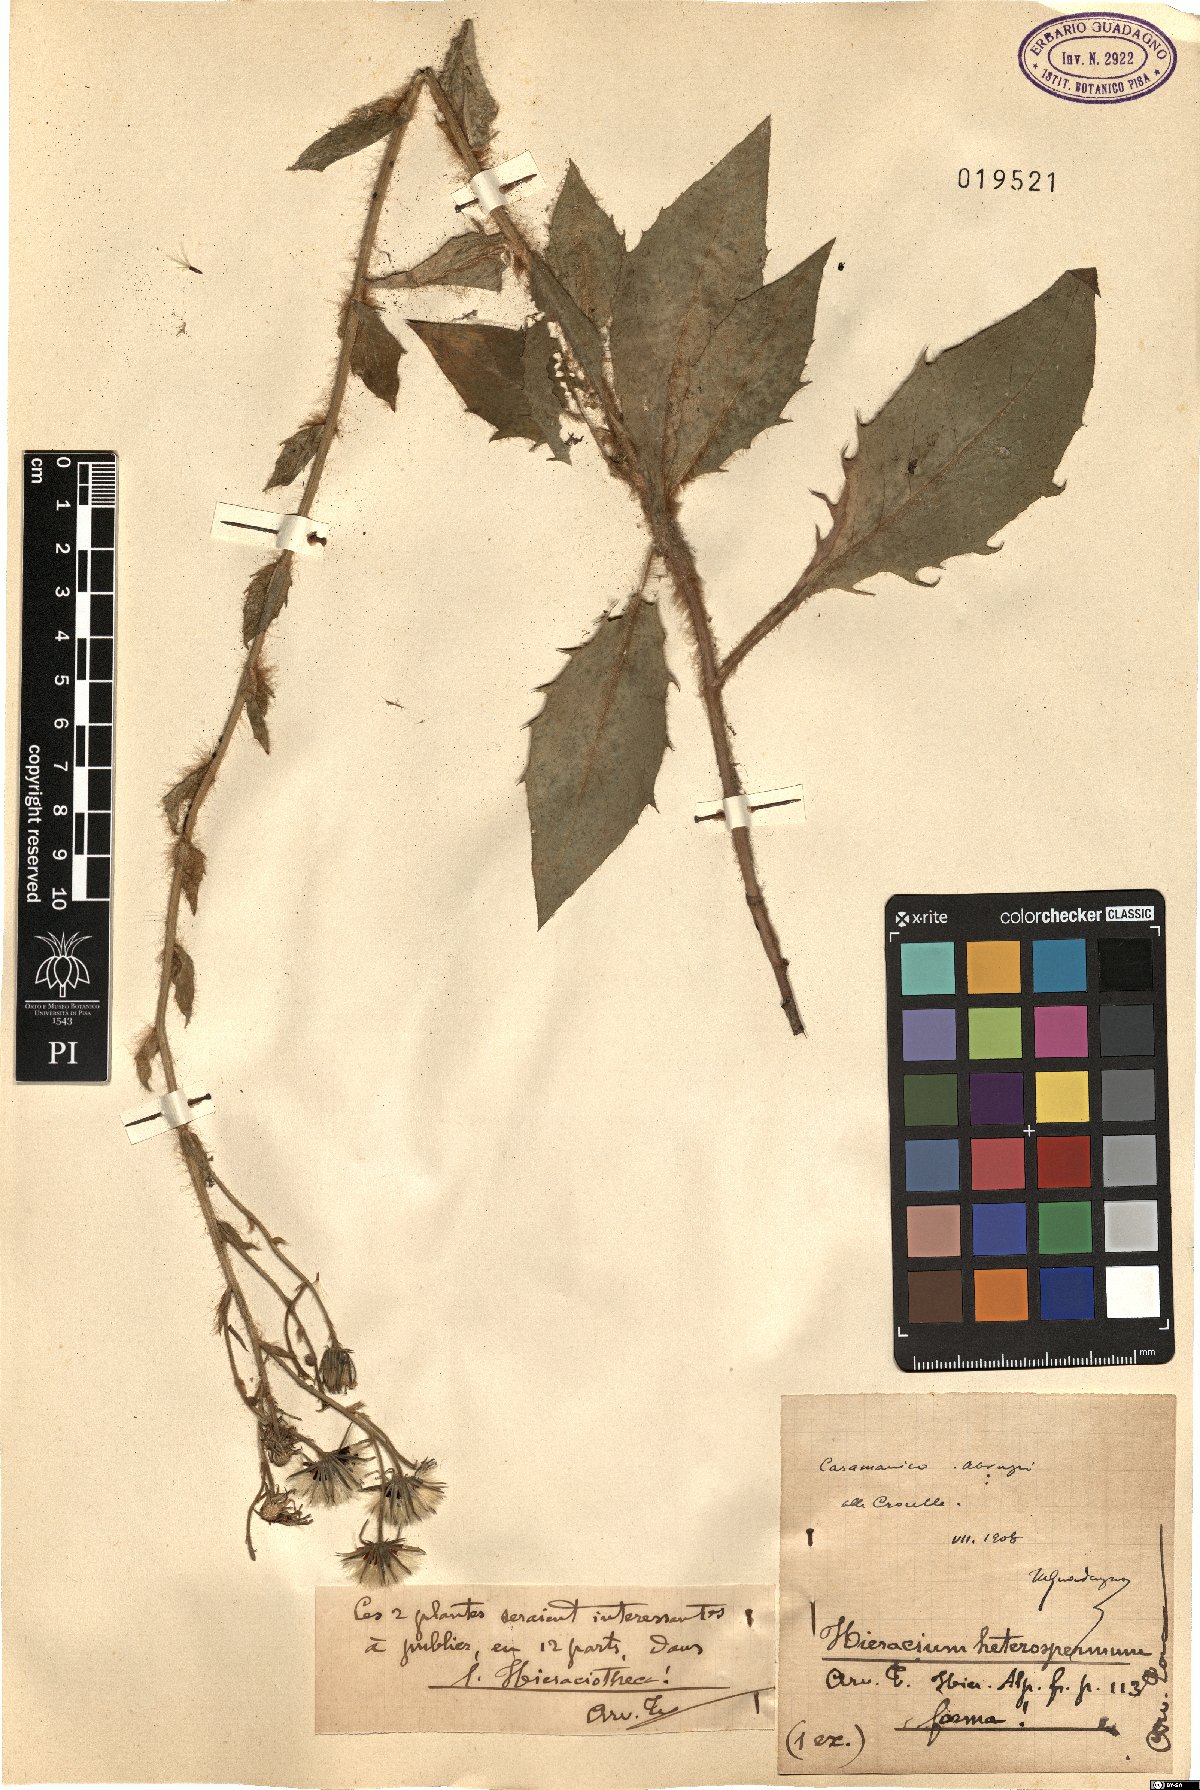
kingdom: Plantae
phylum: Tracheophyta
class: Magnoliopsida
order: Asterales
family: Asteraceae
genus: Hieracium
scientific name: Hieracium racemosum
